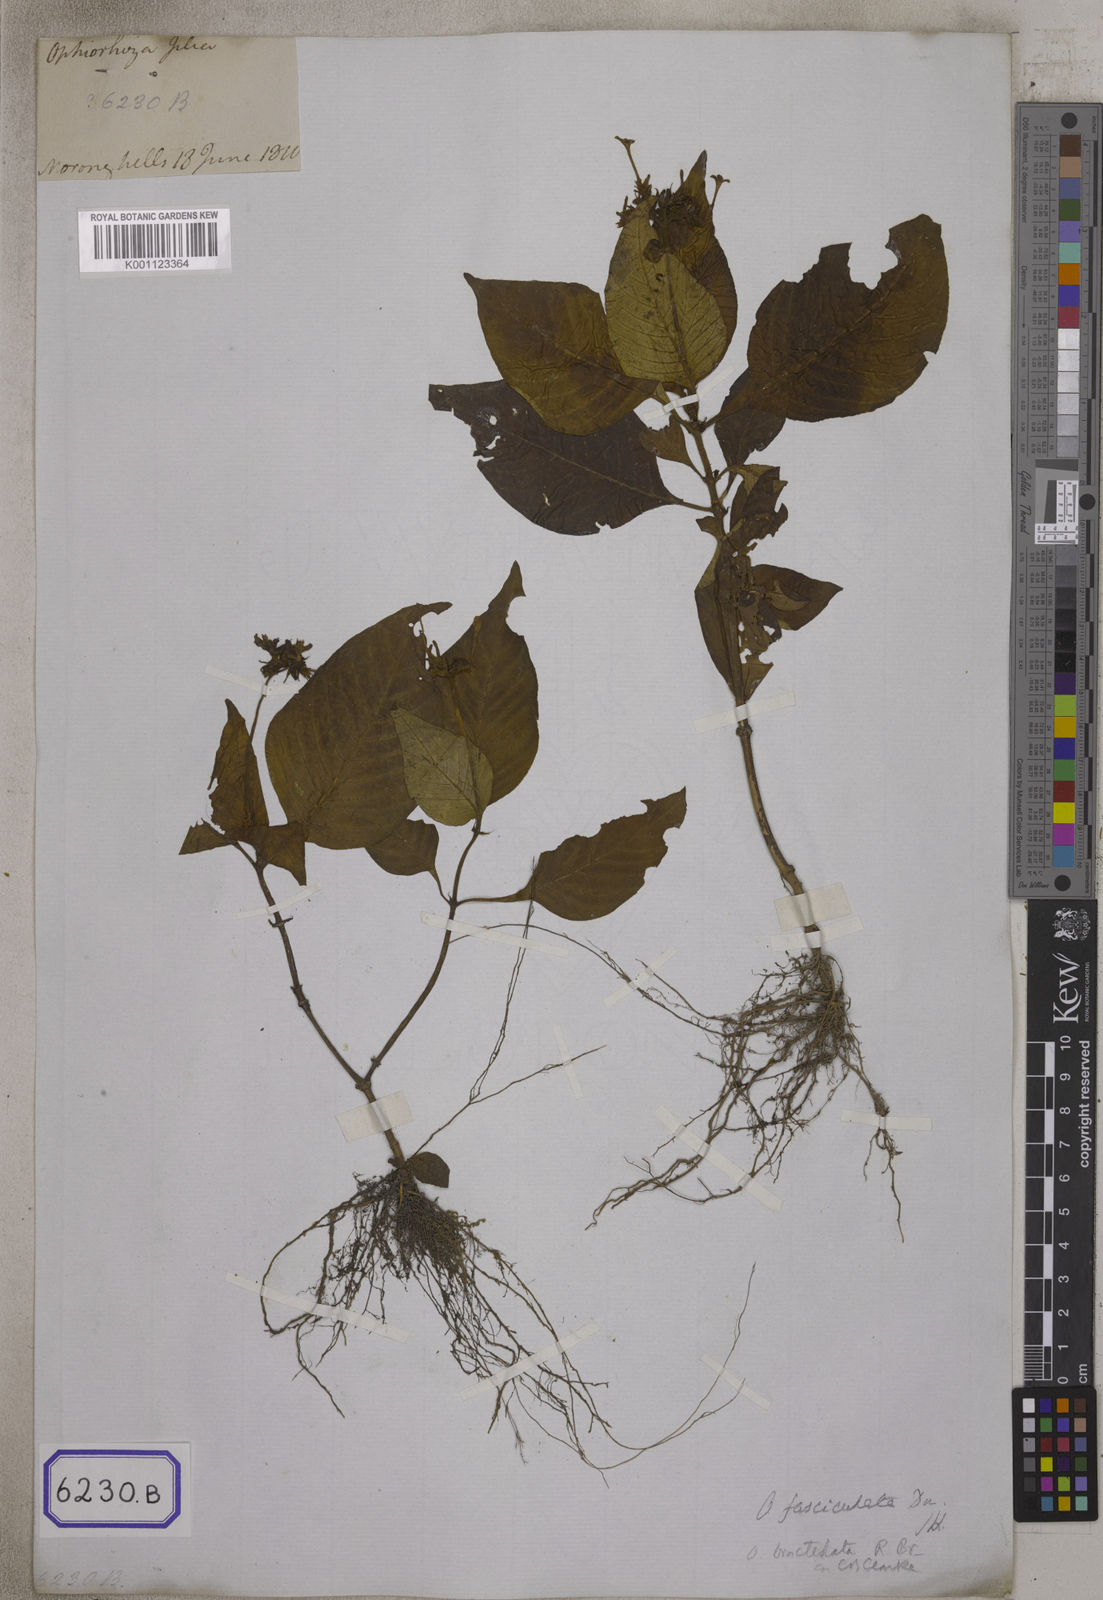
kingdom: Plantae
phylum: Tracheophyta
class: Magnoliopsida
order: Gentianales
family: Rubiaceae
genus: Ophiorrhiza
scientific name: Ophiorrhiza
